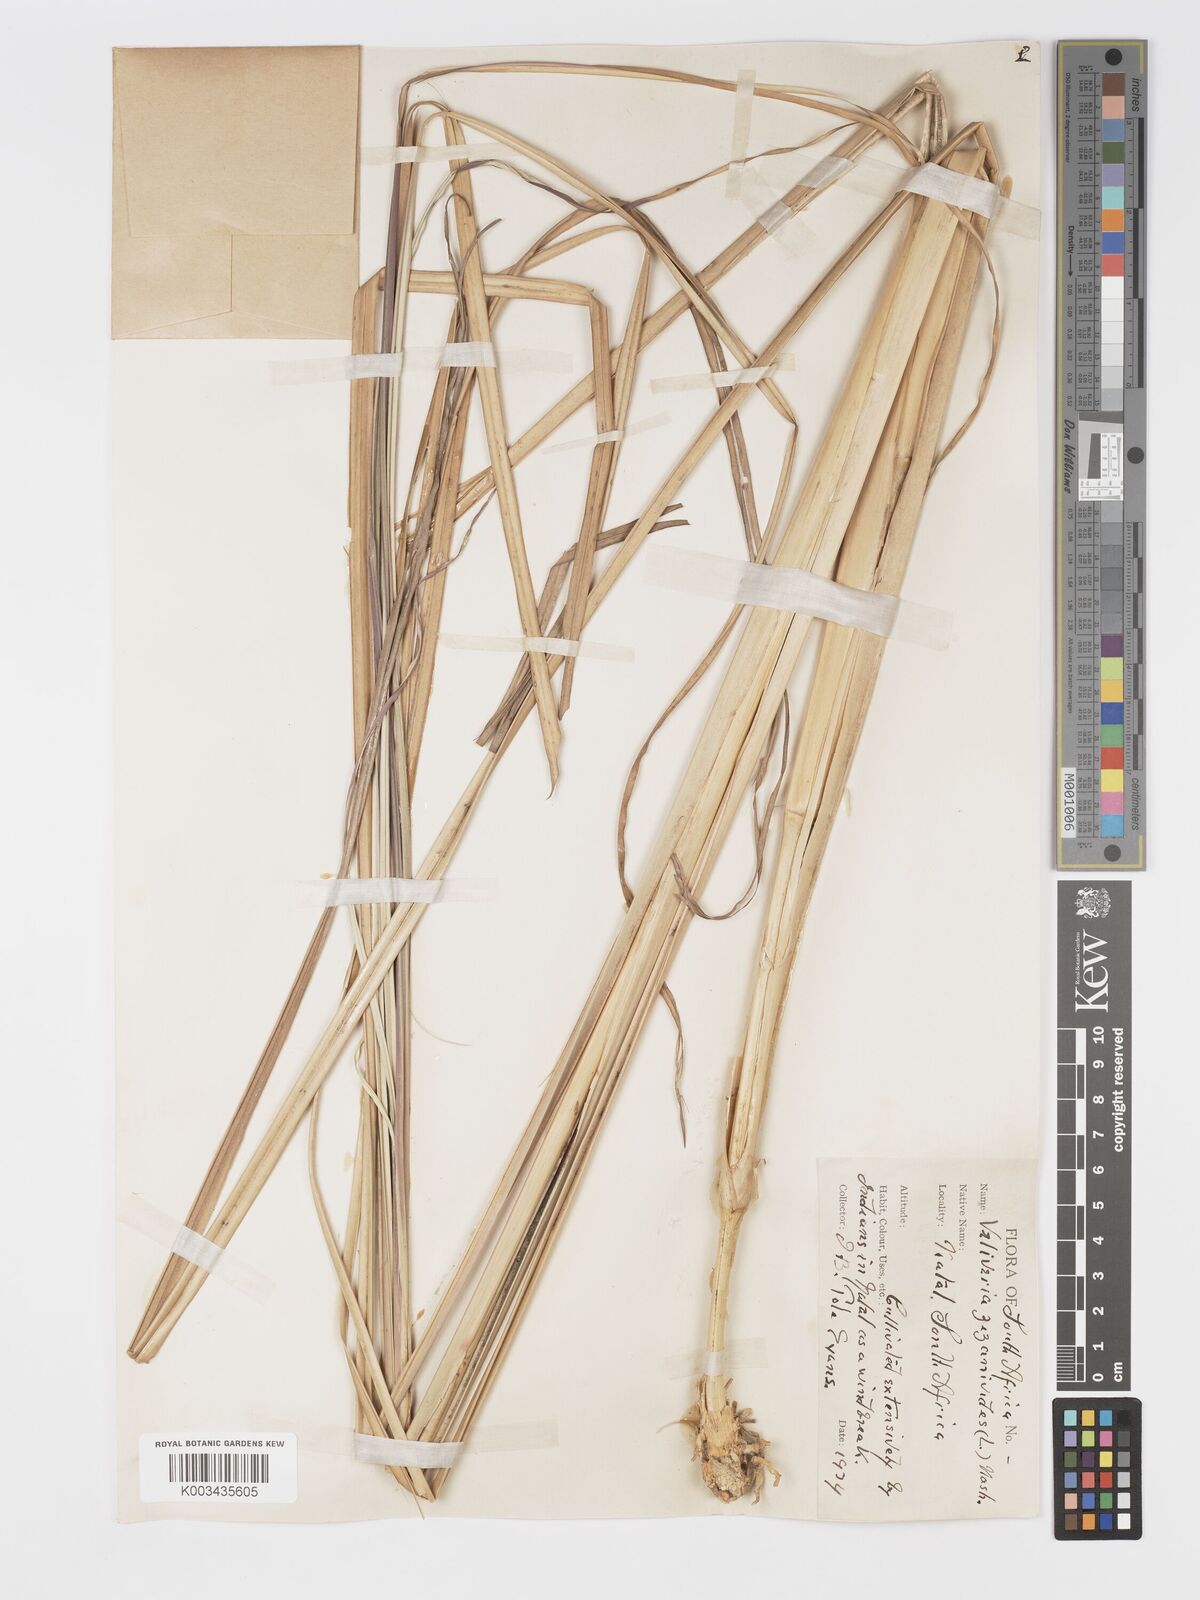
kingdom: Plantae
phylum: Tracheophyta
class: Liliopsida
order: Poales
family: Poaceae
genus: Chrysopogon
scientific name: Chrysopogon zizanioides
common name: False beardgrass
